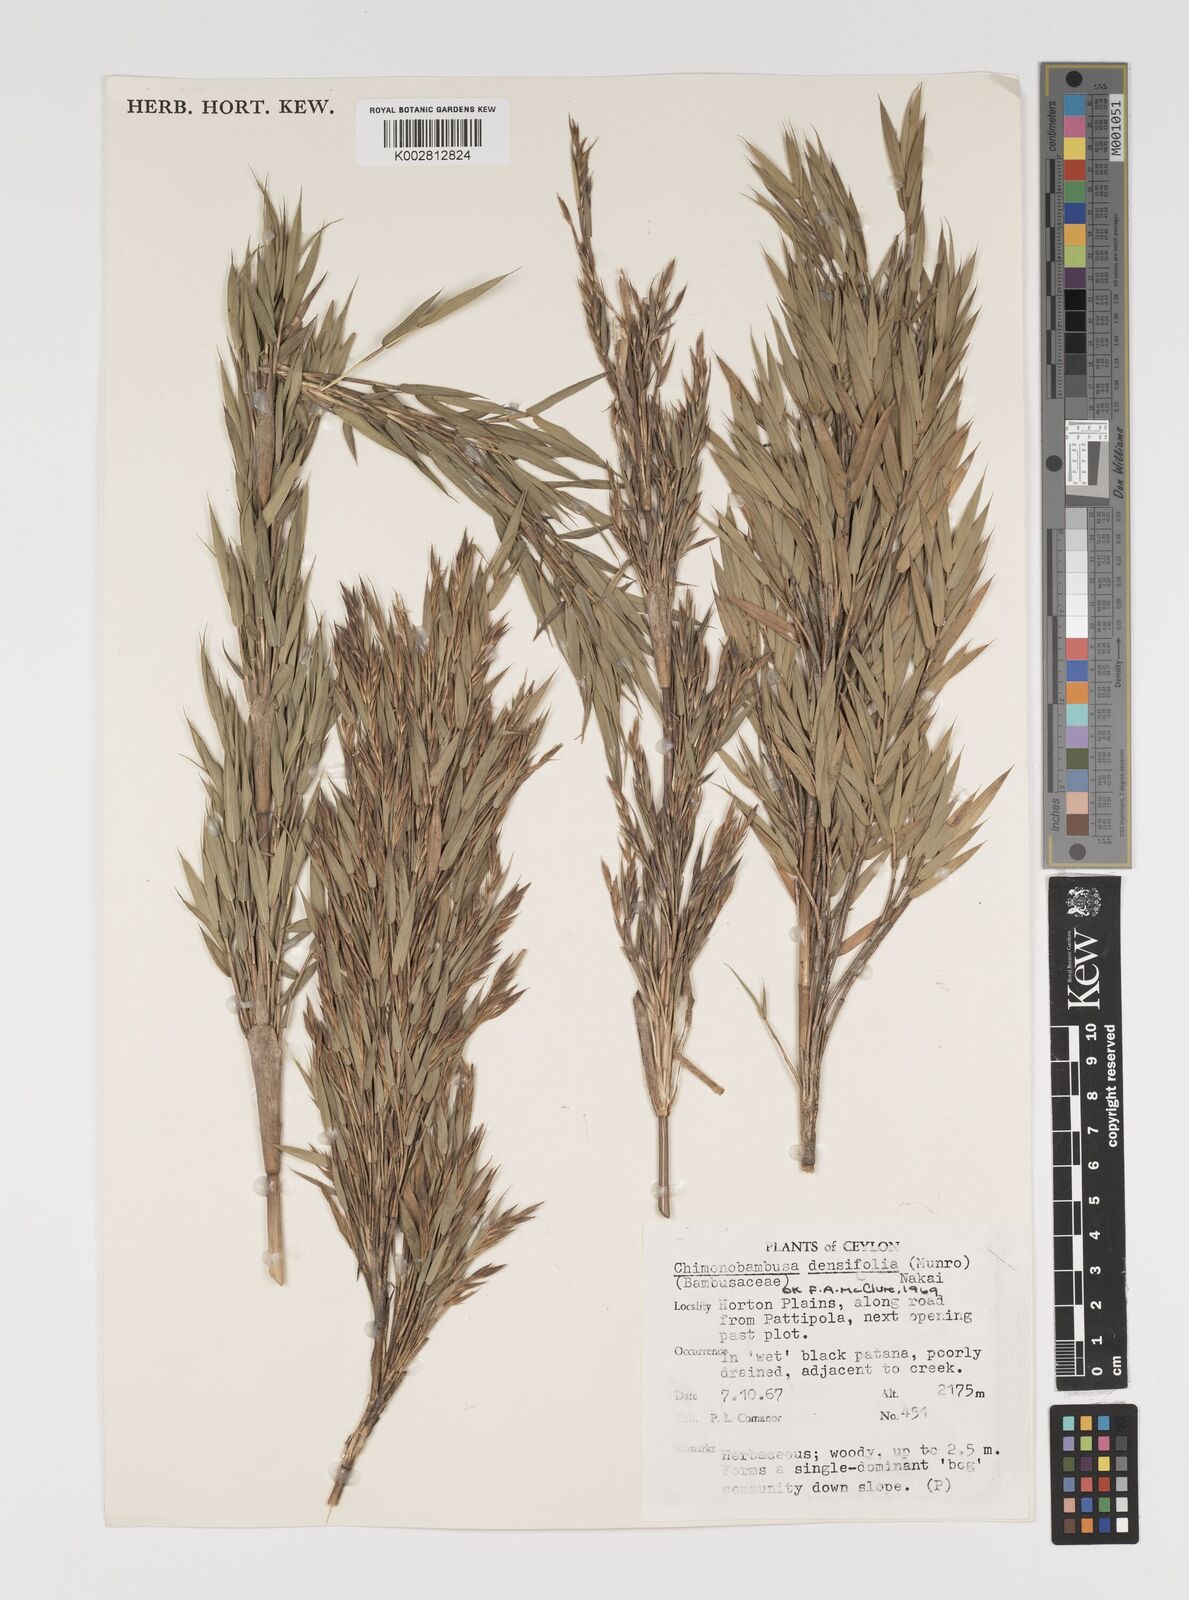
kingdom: Plantae
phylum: Tracheophyta
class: Liliopsida
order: Poales
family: Poaceae
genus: Brachystachyum
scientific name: Brachystachyum densiflorum
